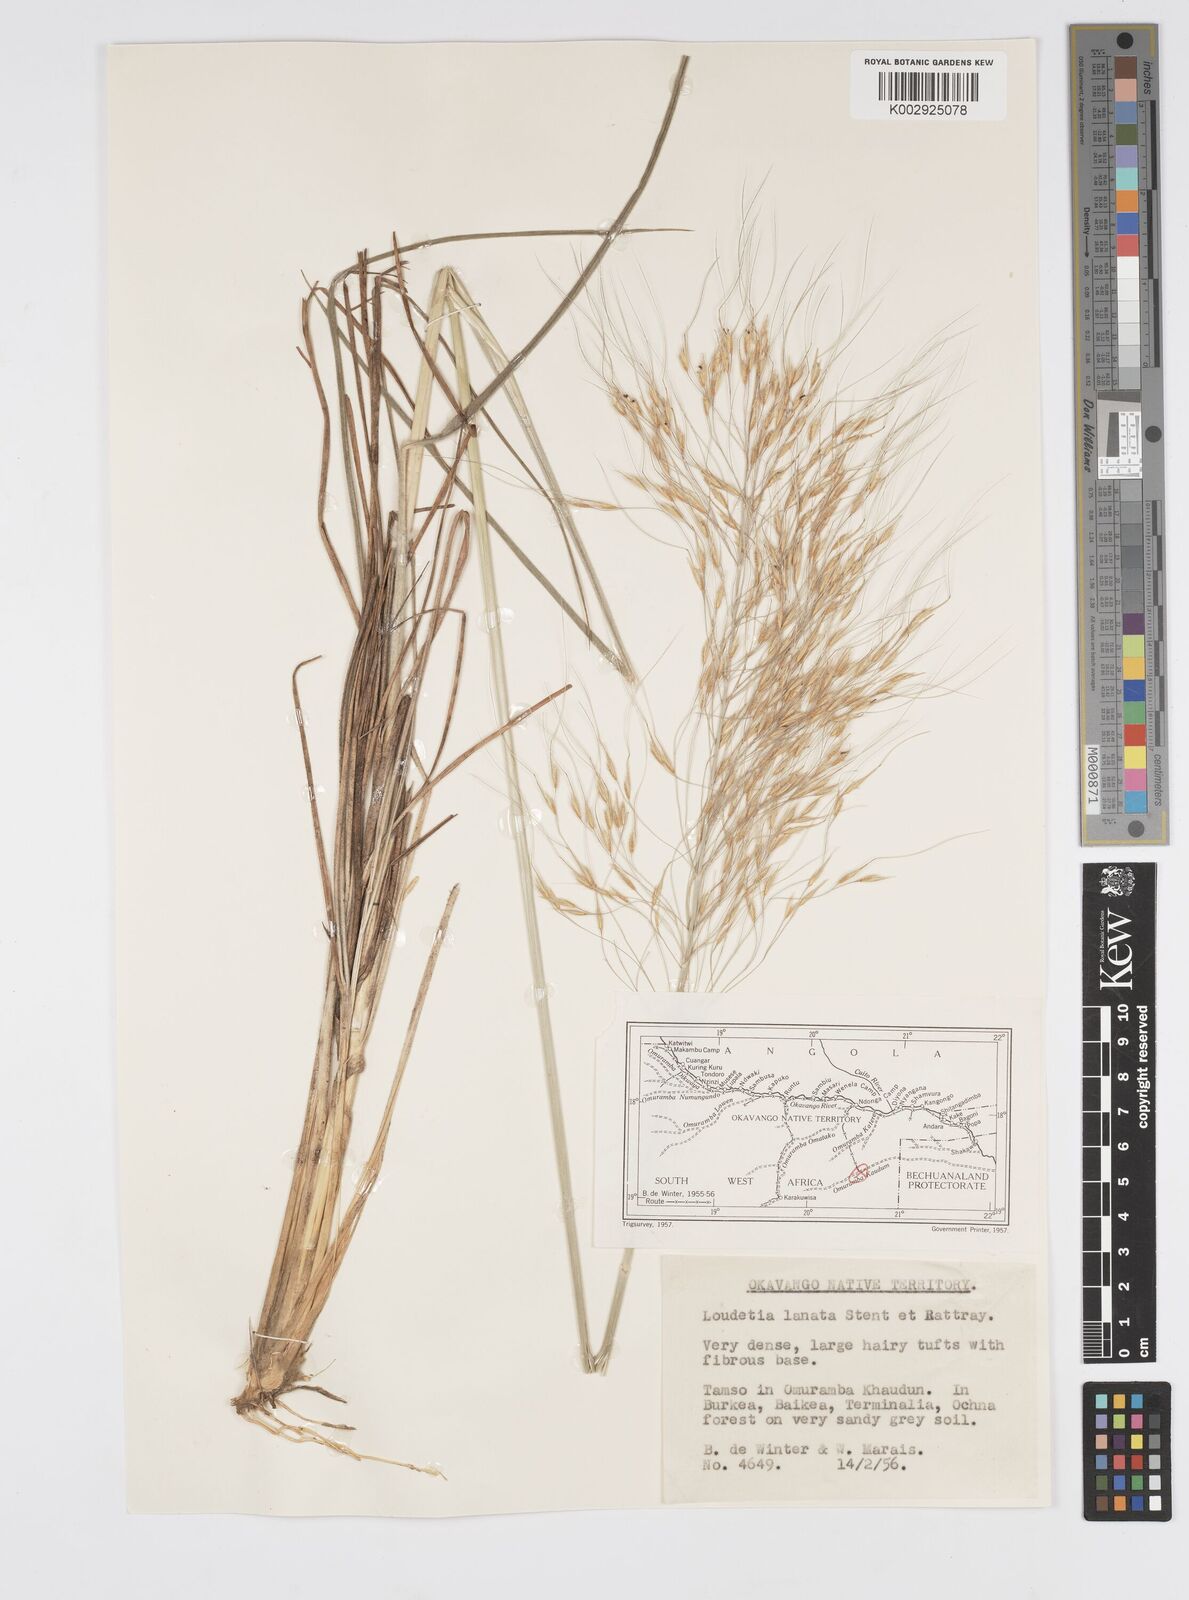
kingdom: Plantae
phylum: Tracheophyta
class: Liliopsida
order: Poales
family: Poaceae
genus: Loudetia
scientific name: Loudetia lanata
